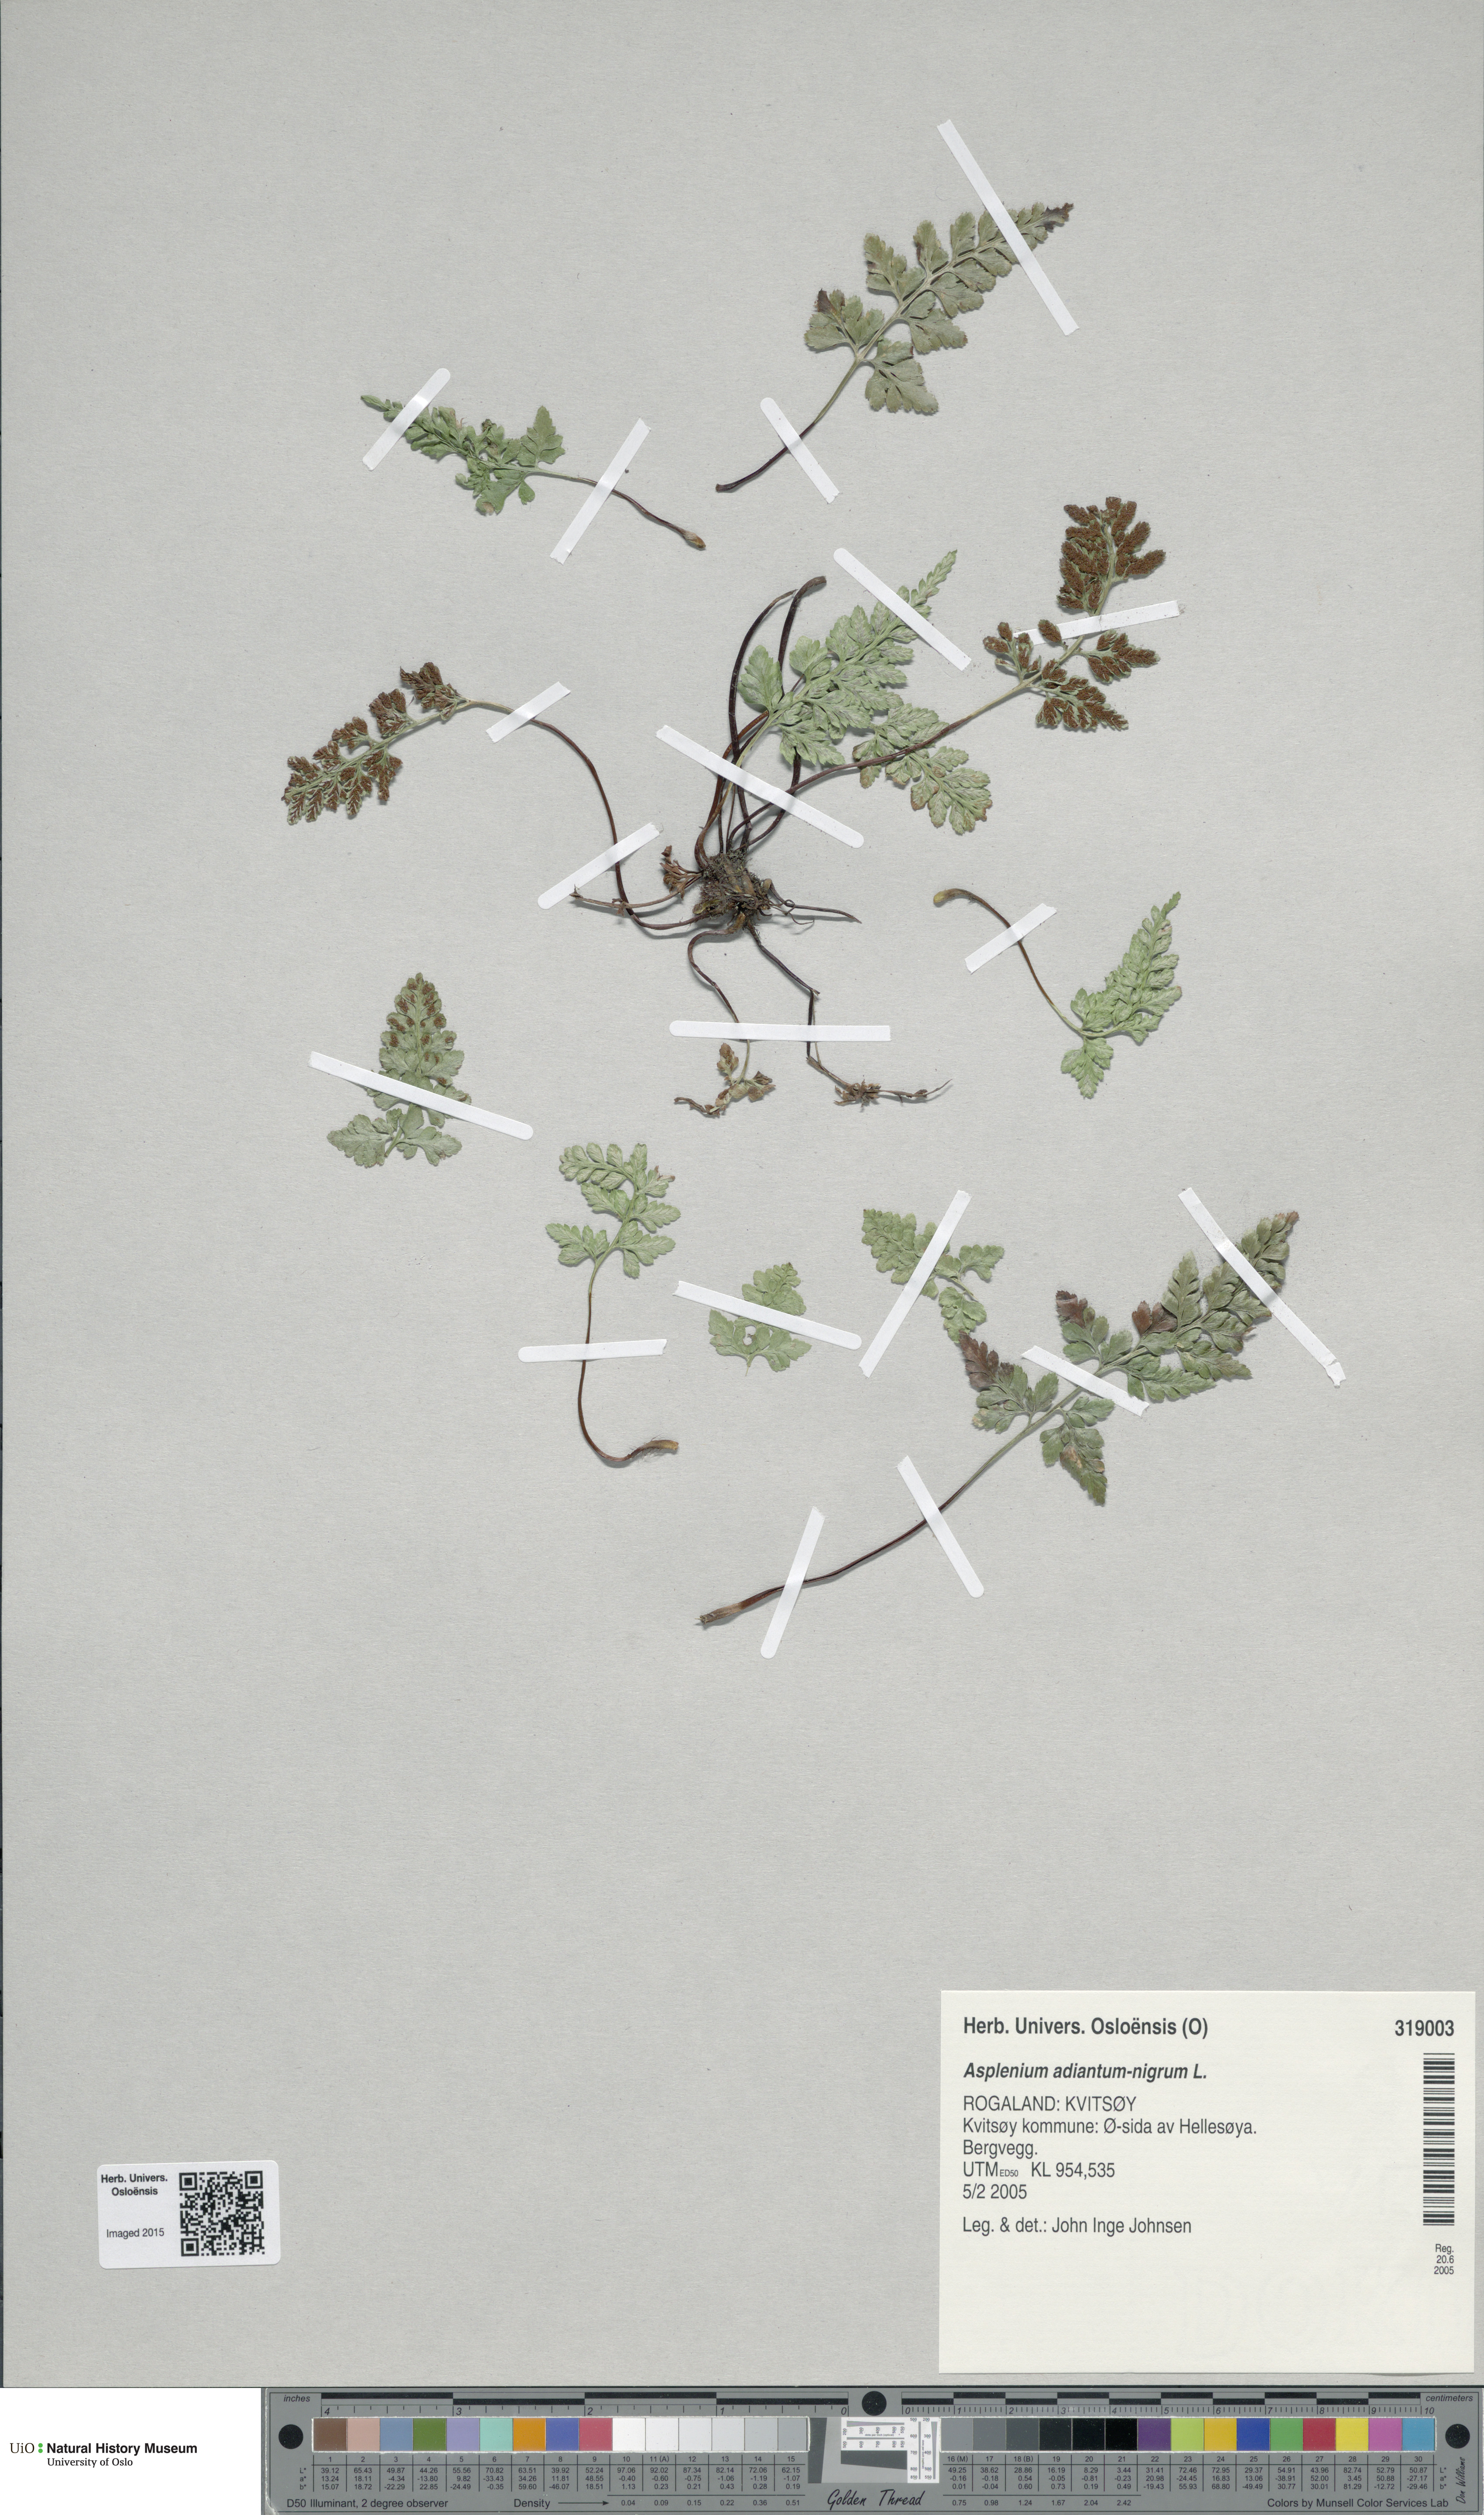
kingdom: Plantae
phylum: Tracheophyta
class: Polypodiopsida
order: Polypodiales
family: Aspleniaceae
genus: Asplenium
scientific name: Asplenium adiantum-nigrum
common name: Black spleenwort
